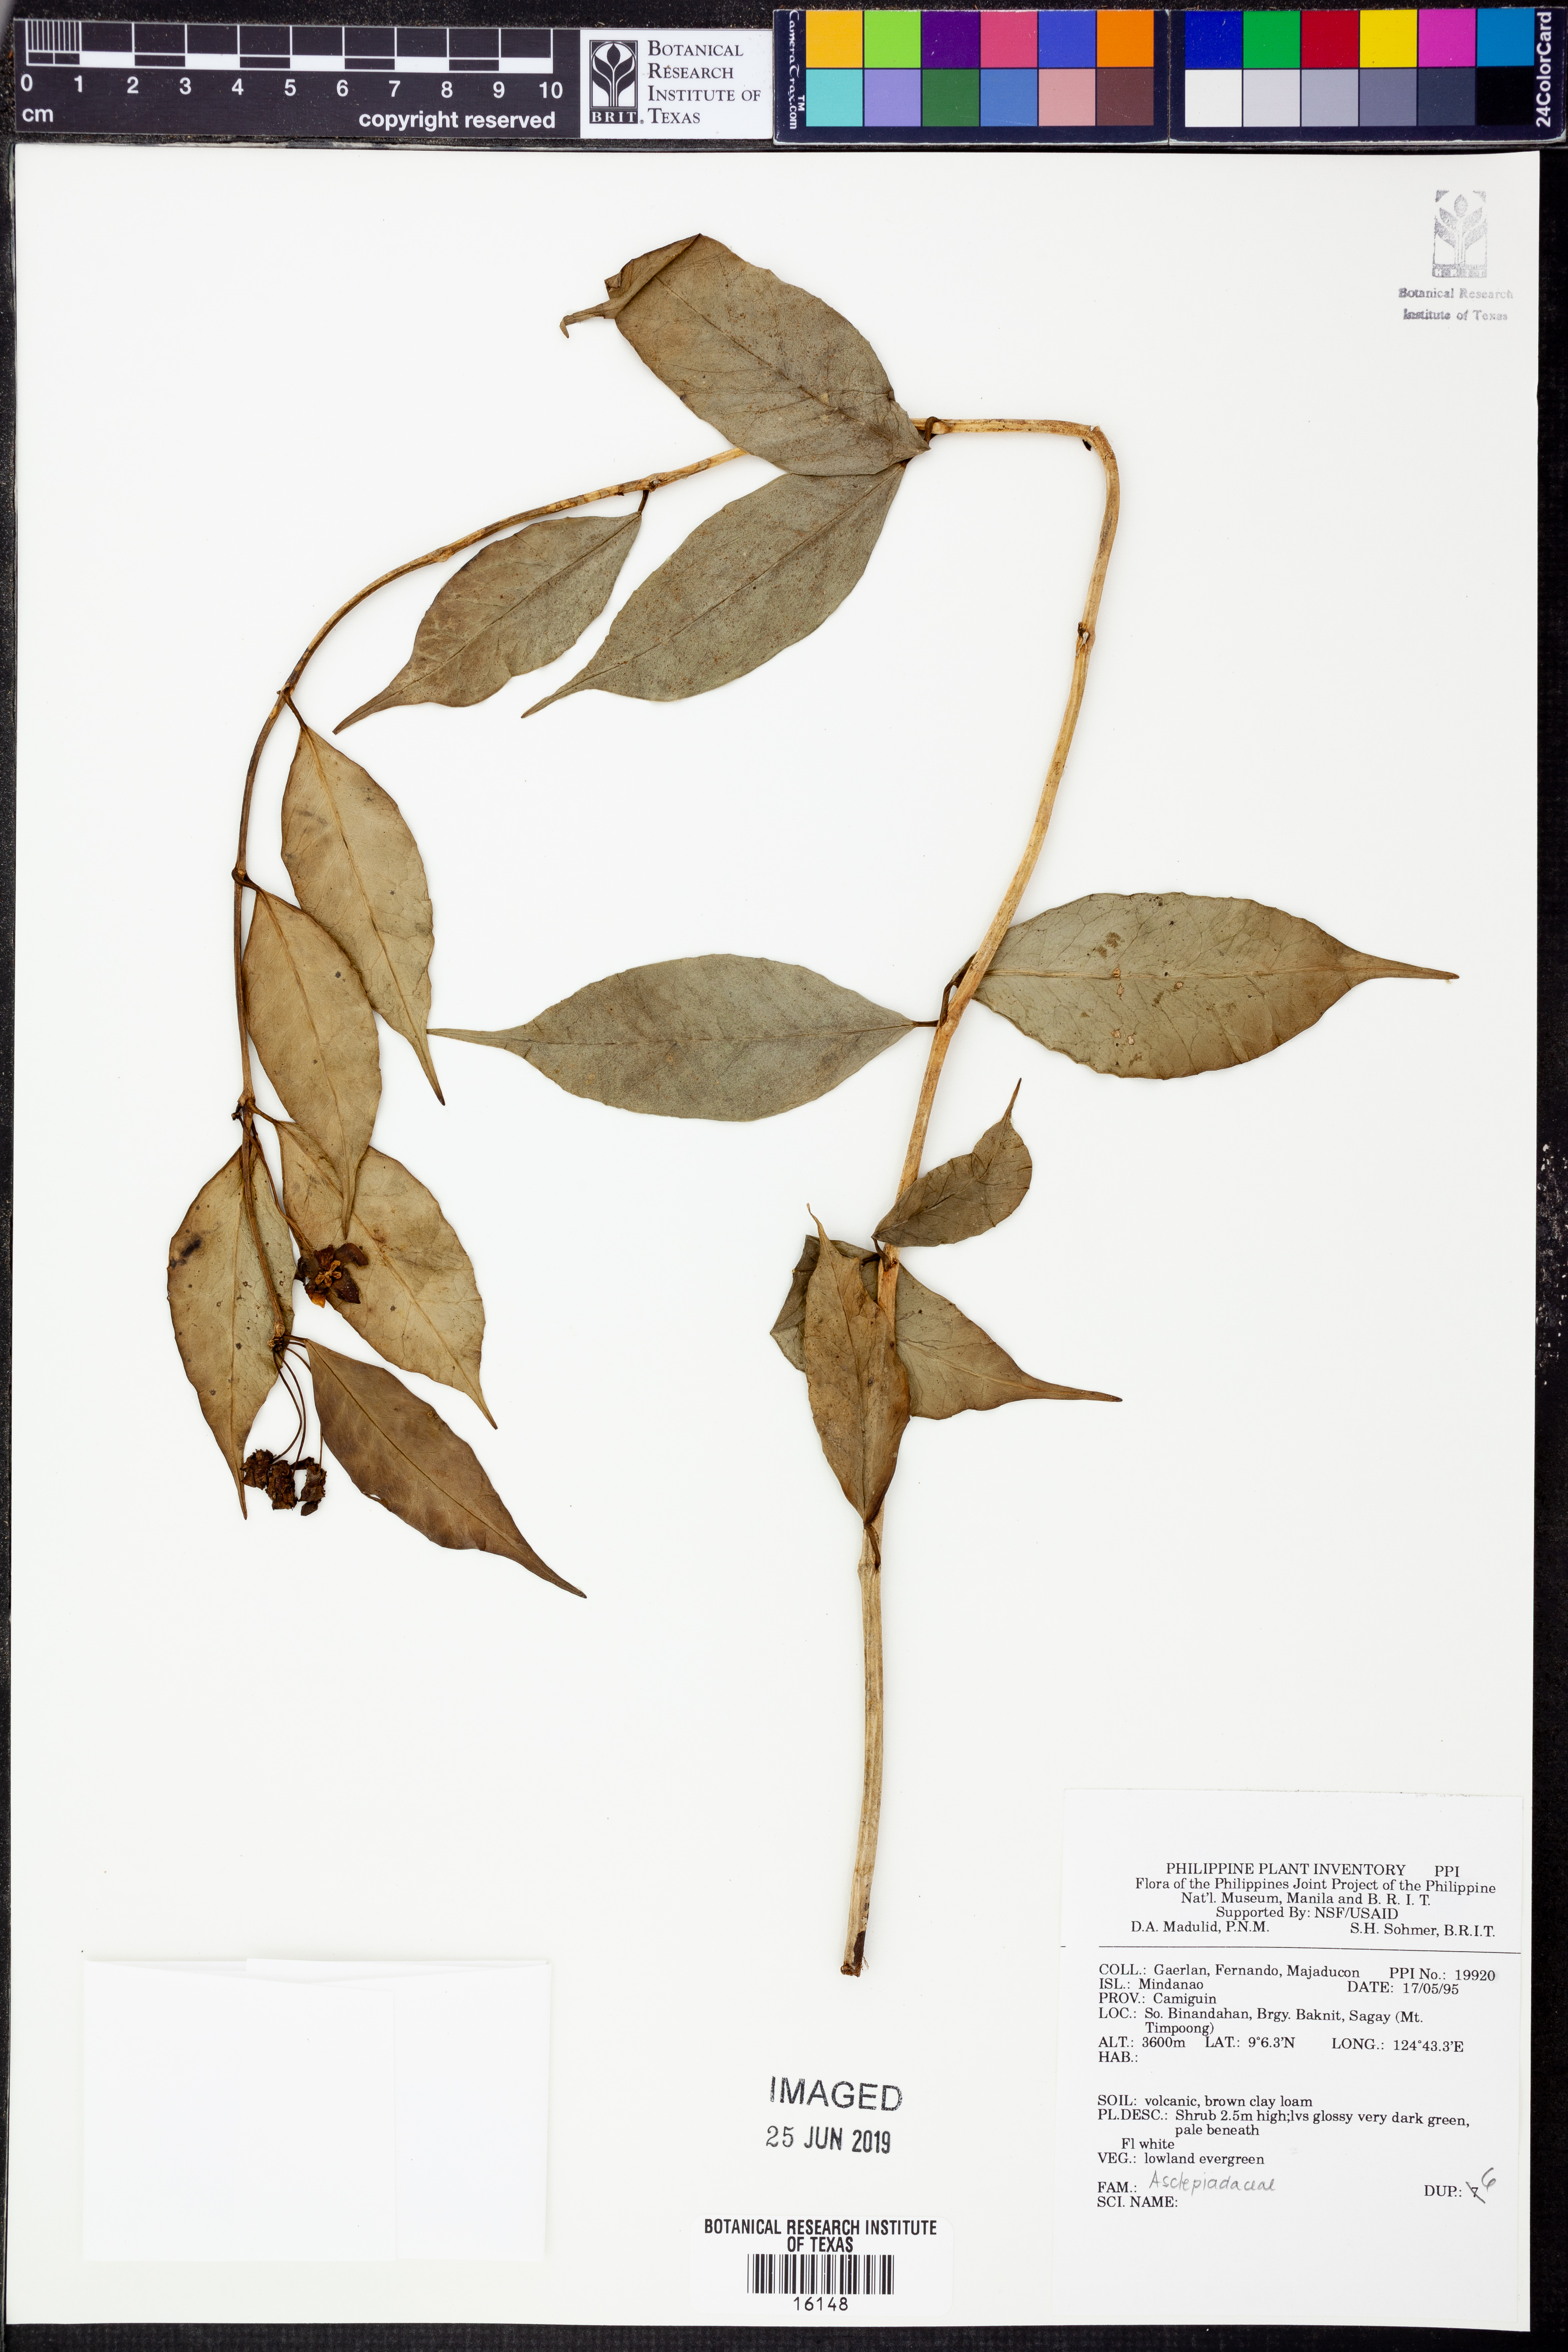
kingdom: Plantae
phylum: Tracheophyta
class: Magnoliopsida
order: Gentianales
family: Apocynaceae
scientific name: Apocynaceae
